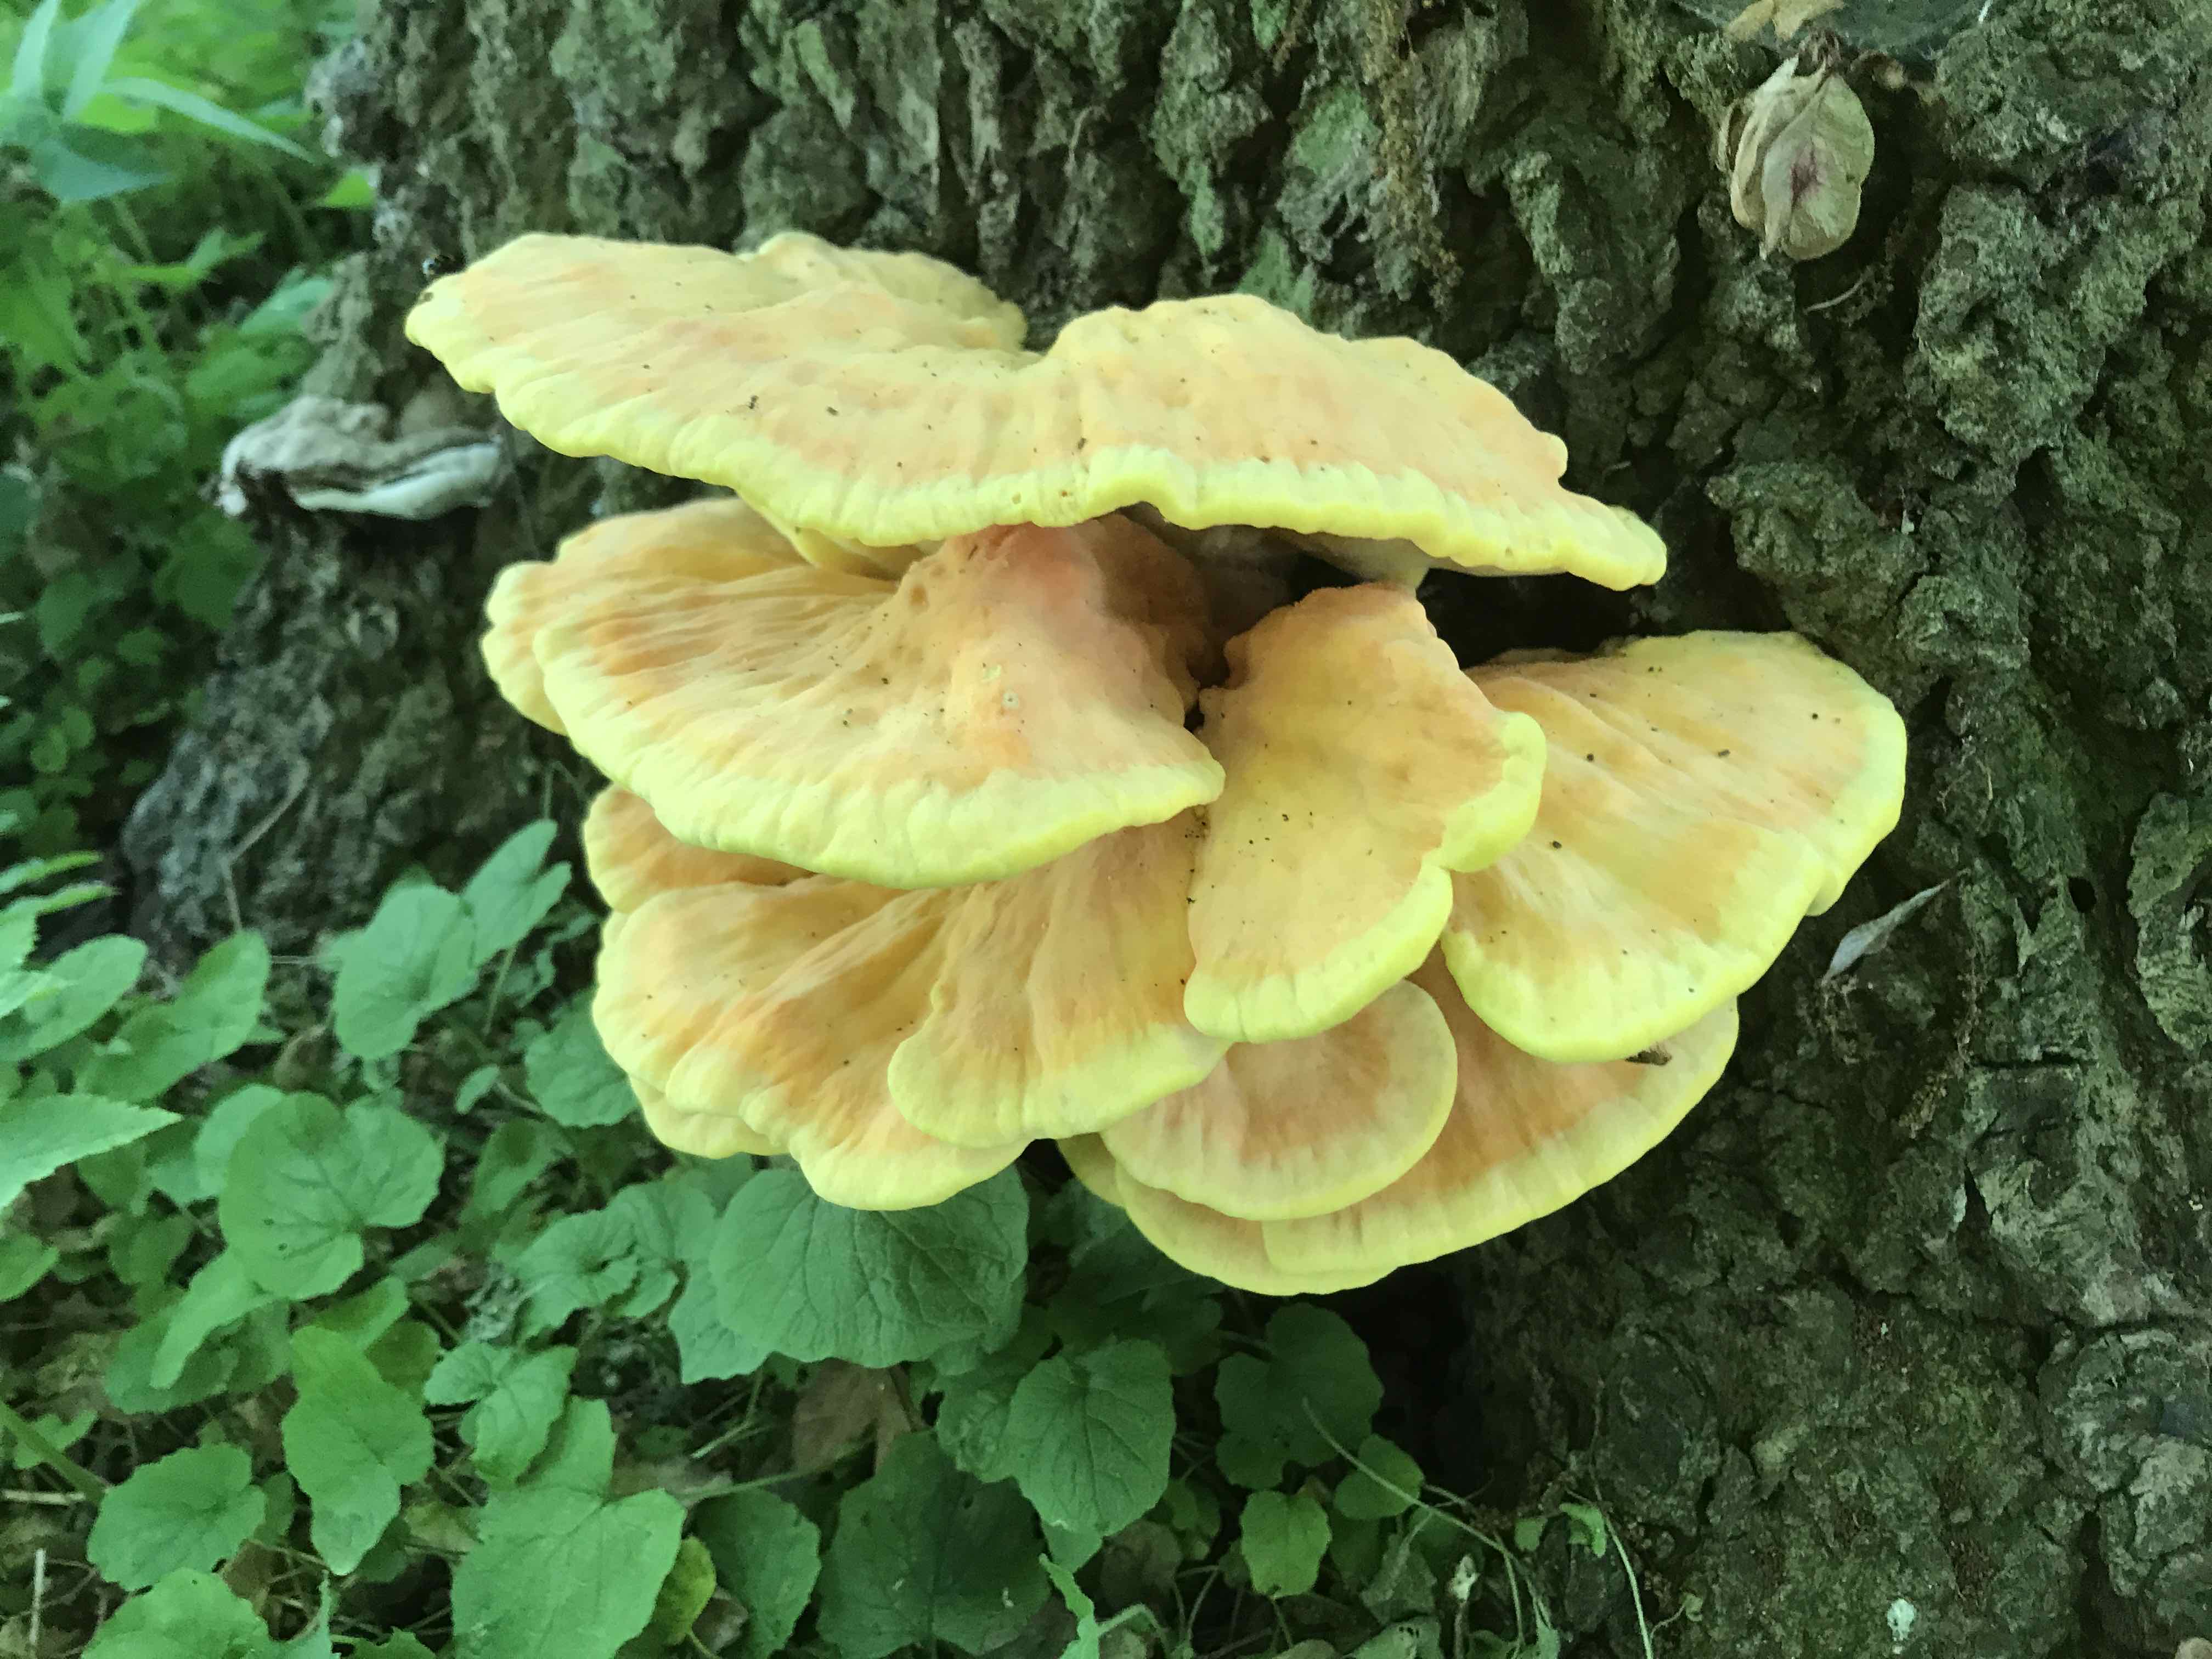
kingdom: Fungi
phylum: Basidiomycota
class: Agaricomycetes
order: Polyporales
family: Laetiporaceae
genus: Laetiporus
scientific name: Laetiporus sulphureus
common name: svovlporesvamp
